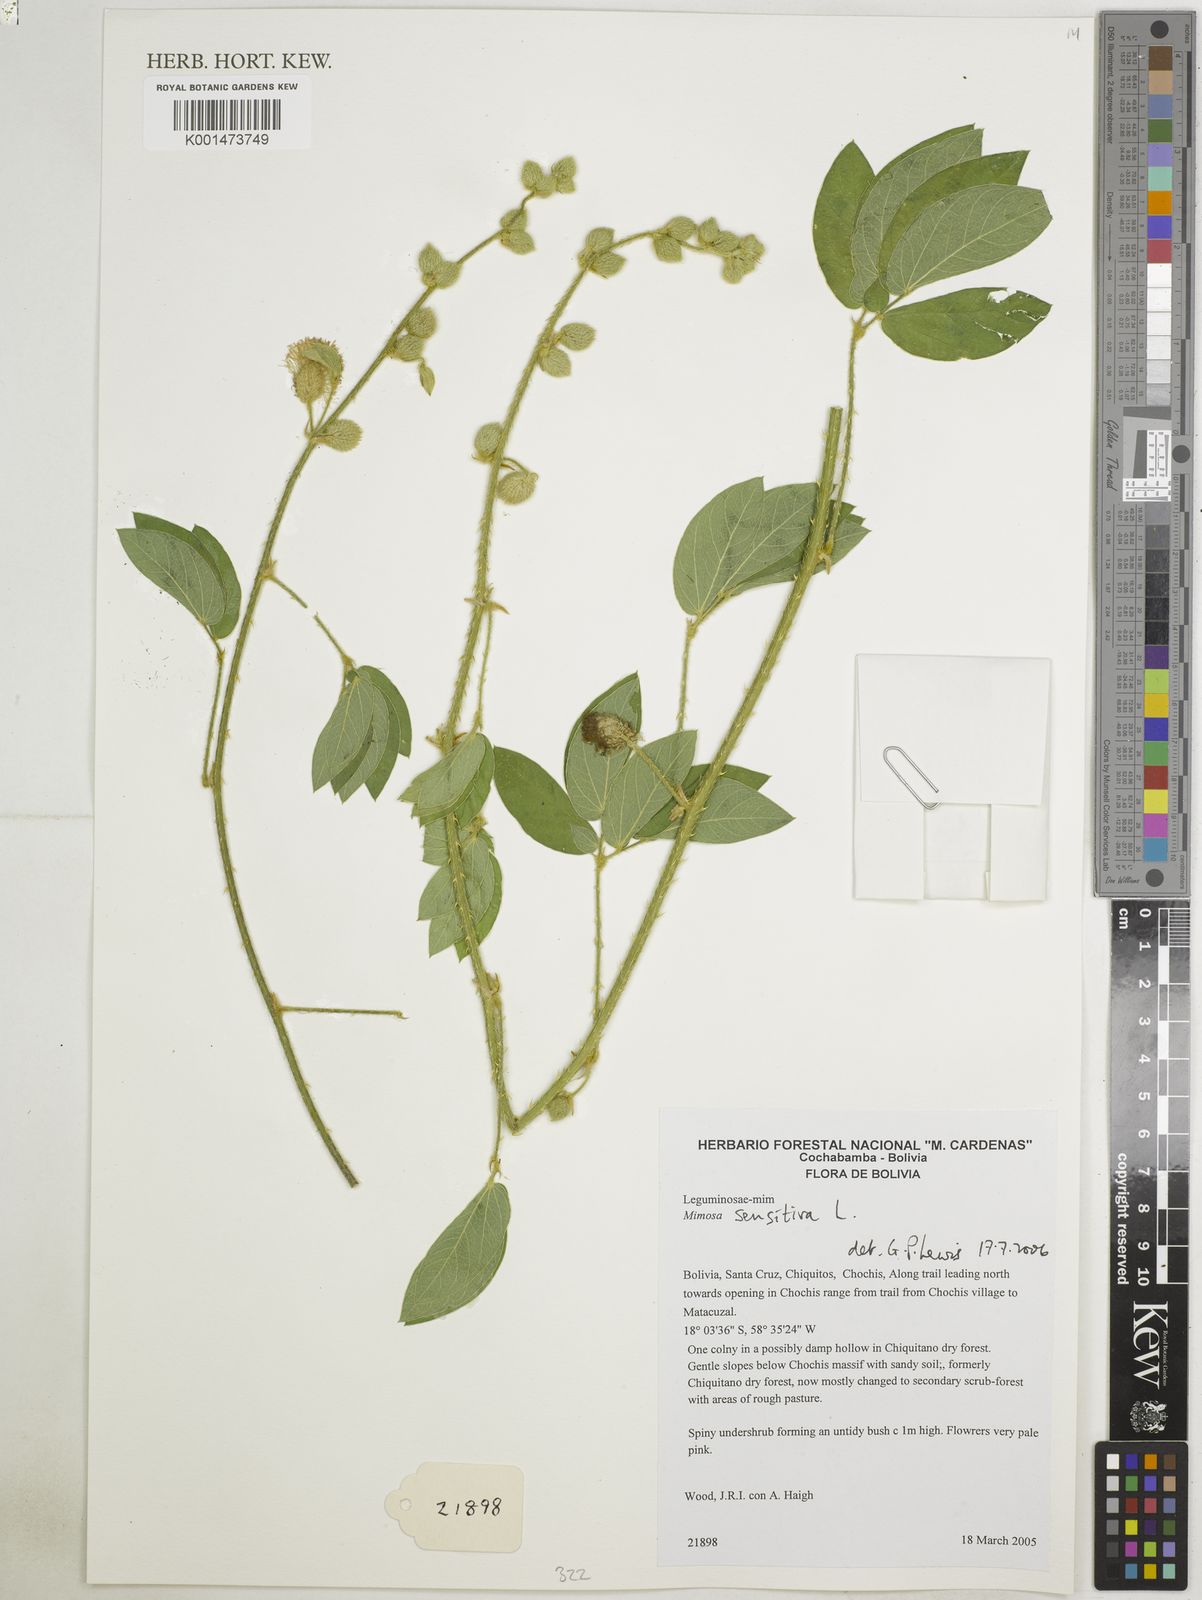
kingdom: Plantae
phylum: Tracheophyta
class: Magnoliopsida
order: Fabales
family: Fabaceae
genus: Mimosa
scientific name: Mimosa sensitiva
